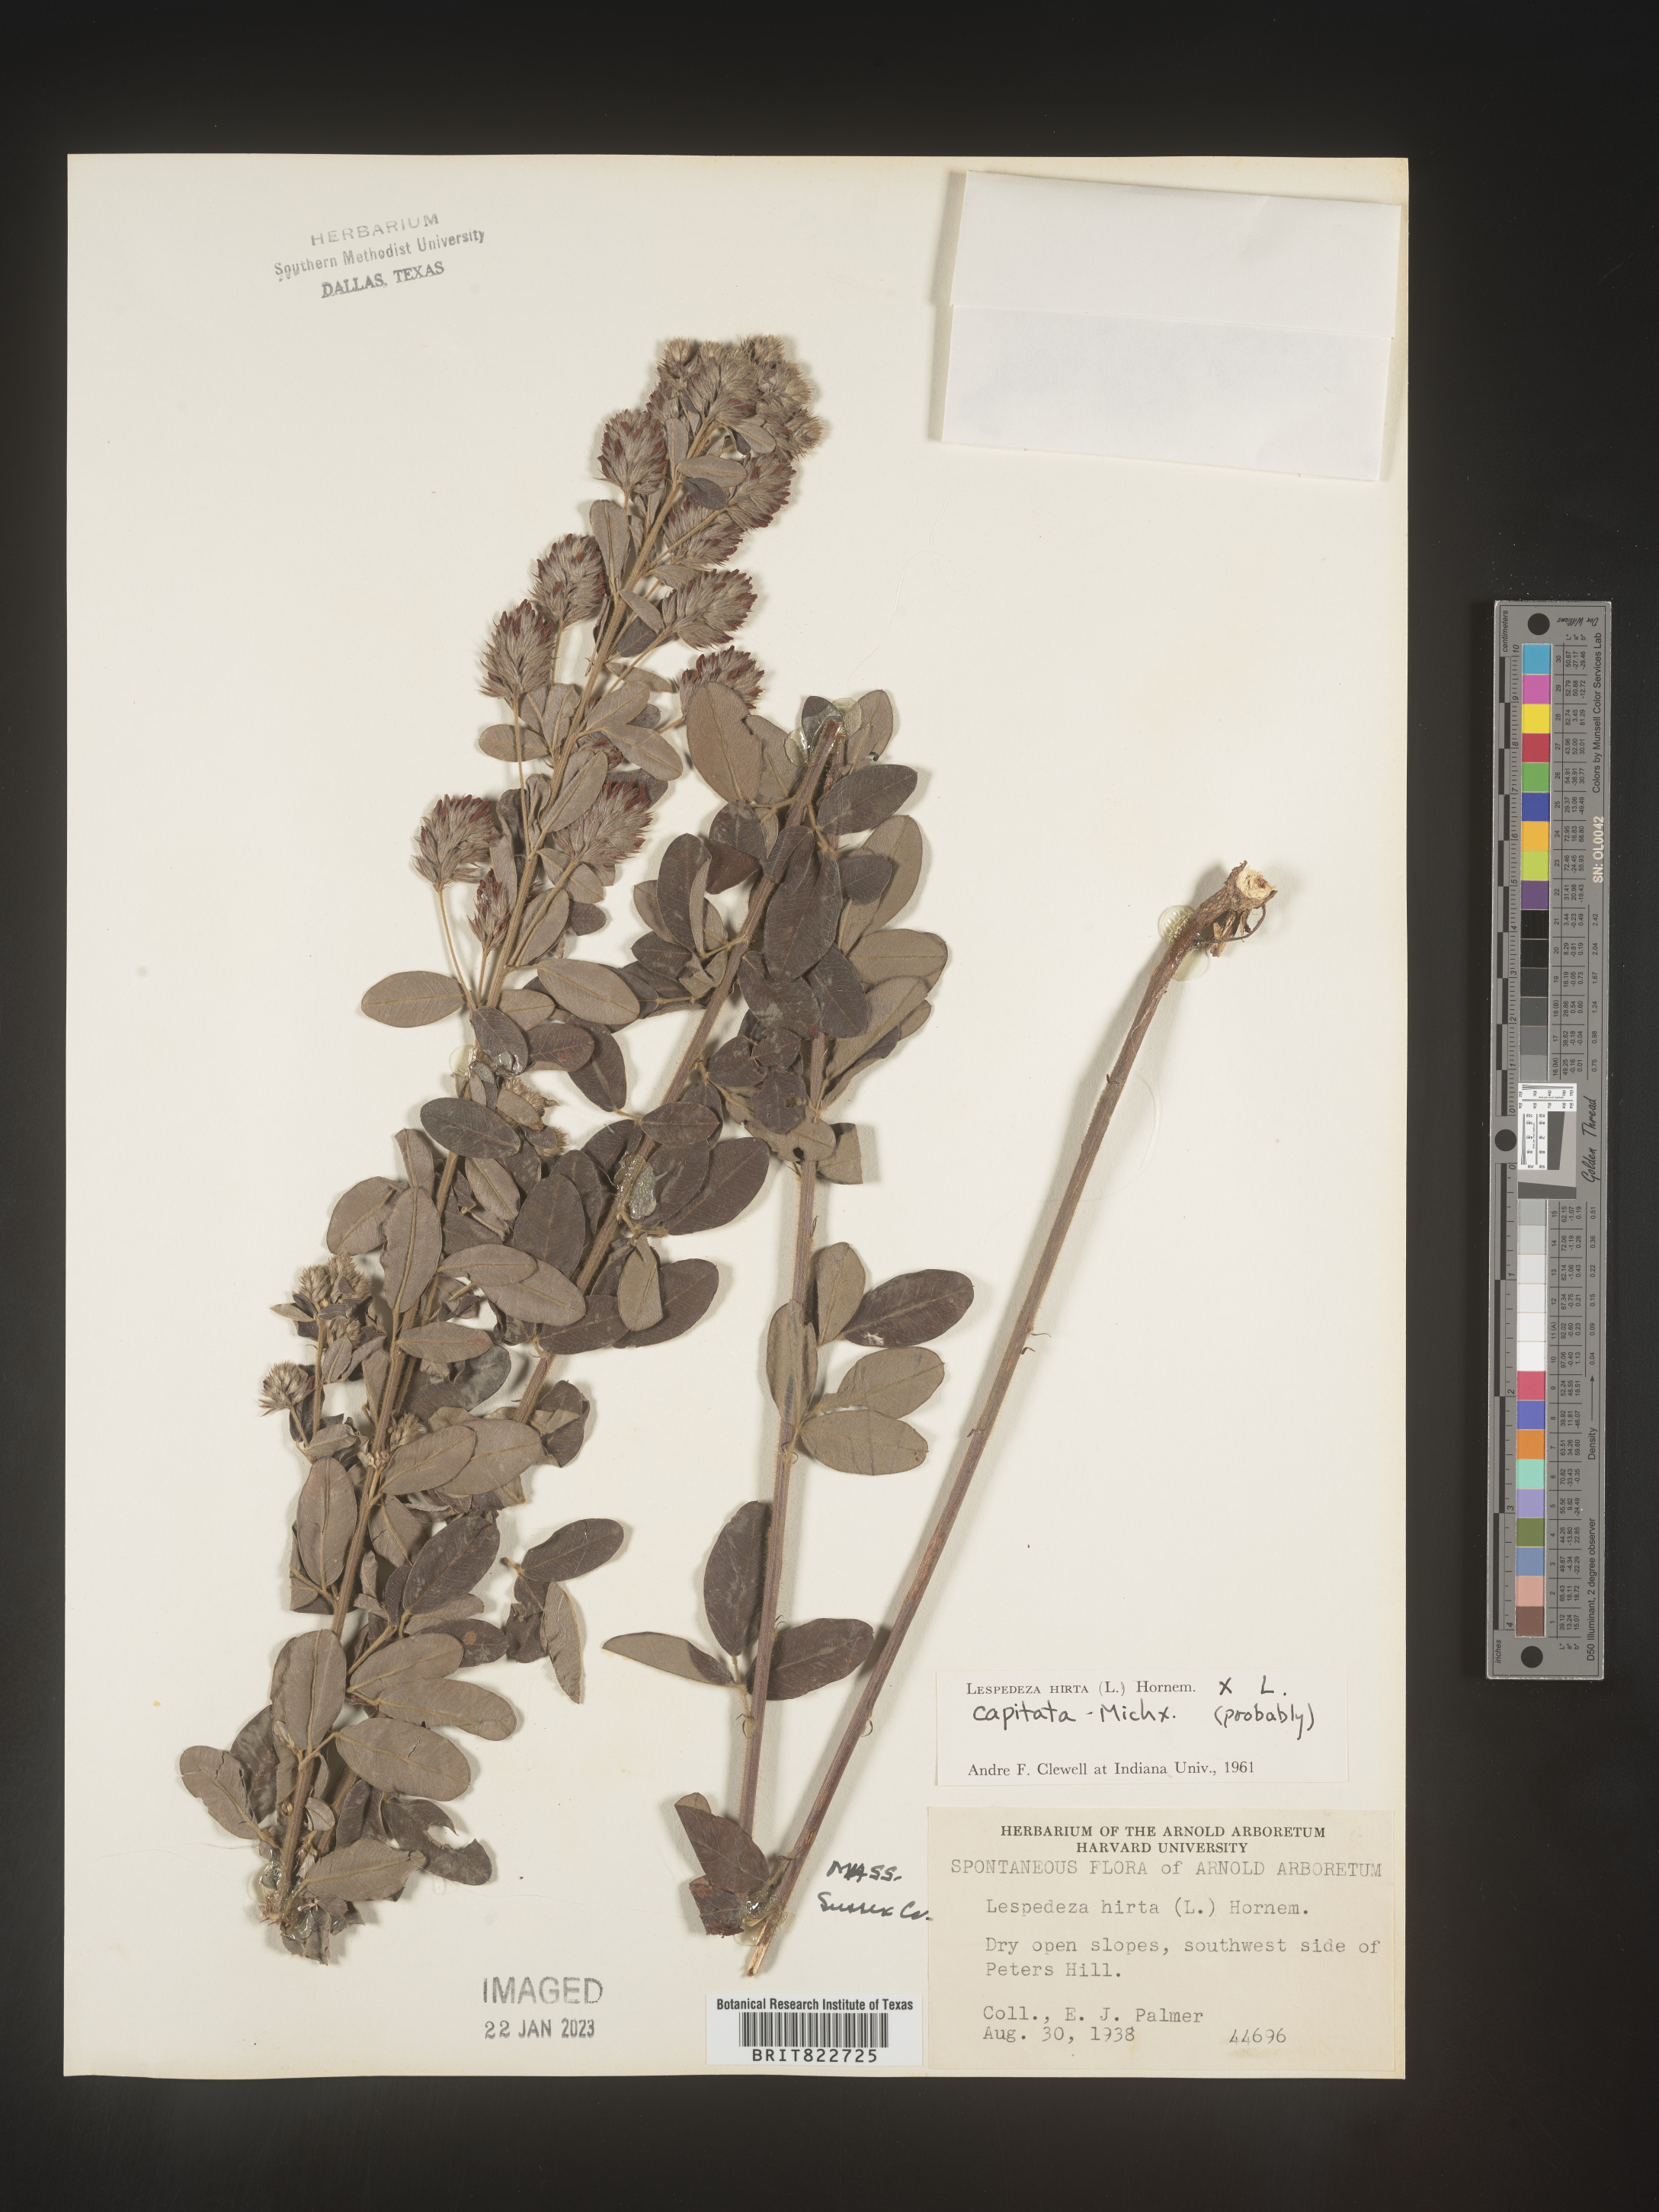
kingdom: Plantae
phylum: Tracheophyta
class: Magnoliopsida
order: Fabales
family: Fabaceae
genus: Lespedeza
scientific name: Lespedeza hirta
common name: Hairy lespedeza
